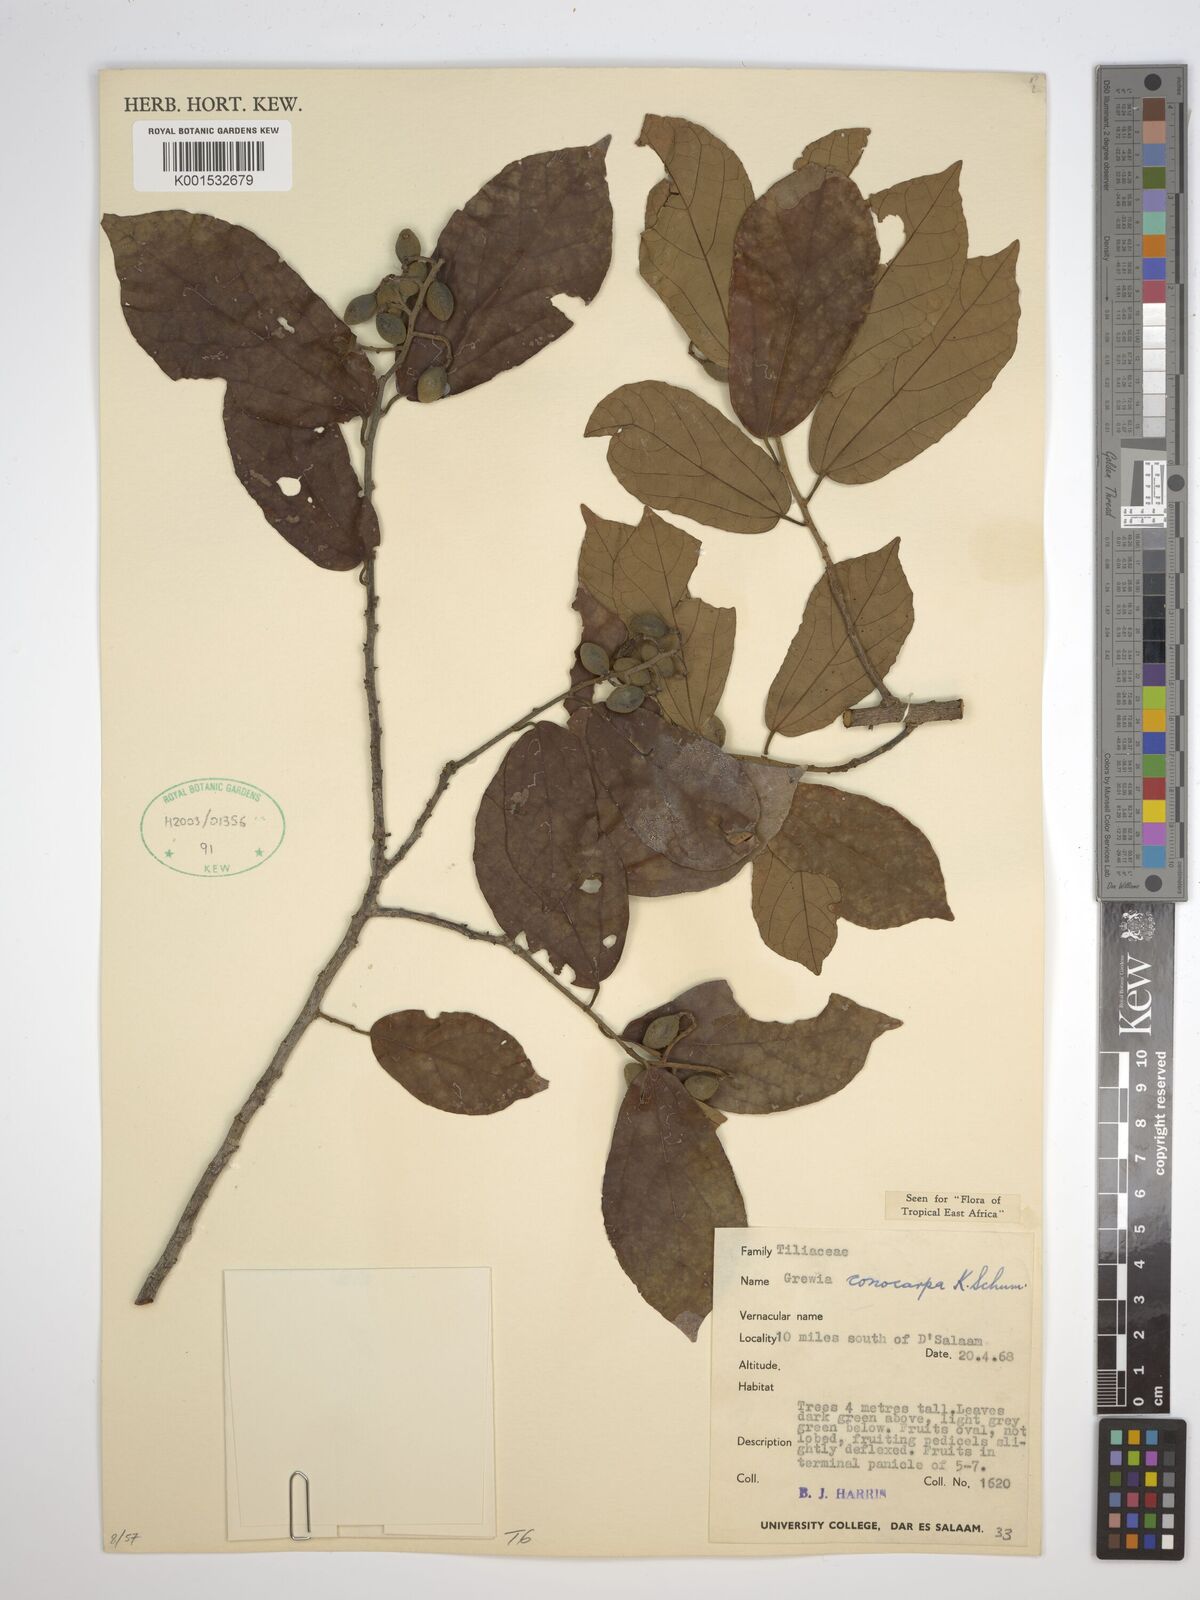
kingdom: Plantae
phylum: Tracheophyta
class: Magnoliopsida
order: Malvales
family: Malvaceae
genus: Microcos
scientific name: Microcos conocarpa
